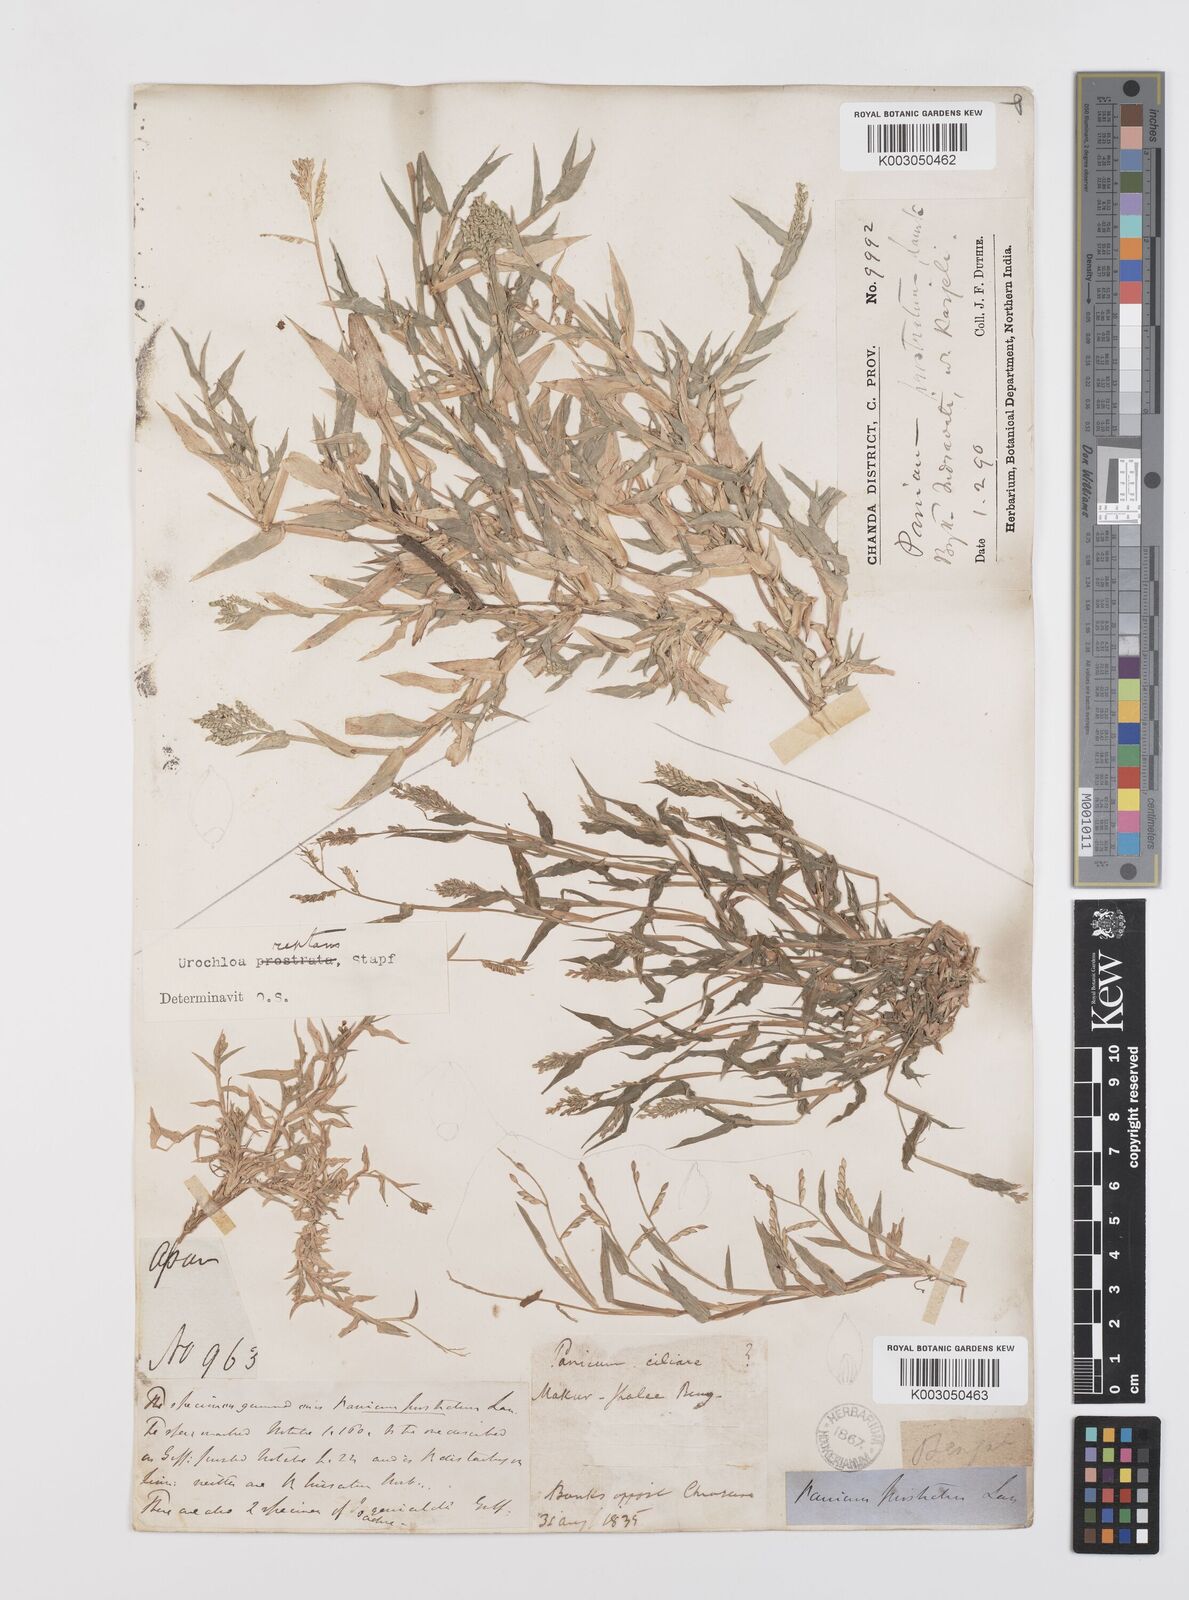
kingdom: Plantae
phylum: Tracheophyta
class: Liliopsida
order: Poales
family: Poaceae
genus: Urochloa
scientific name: Urochloa reptans
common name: Sprawling signalgrass
